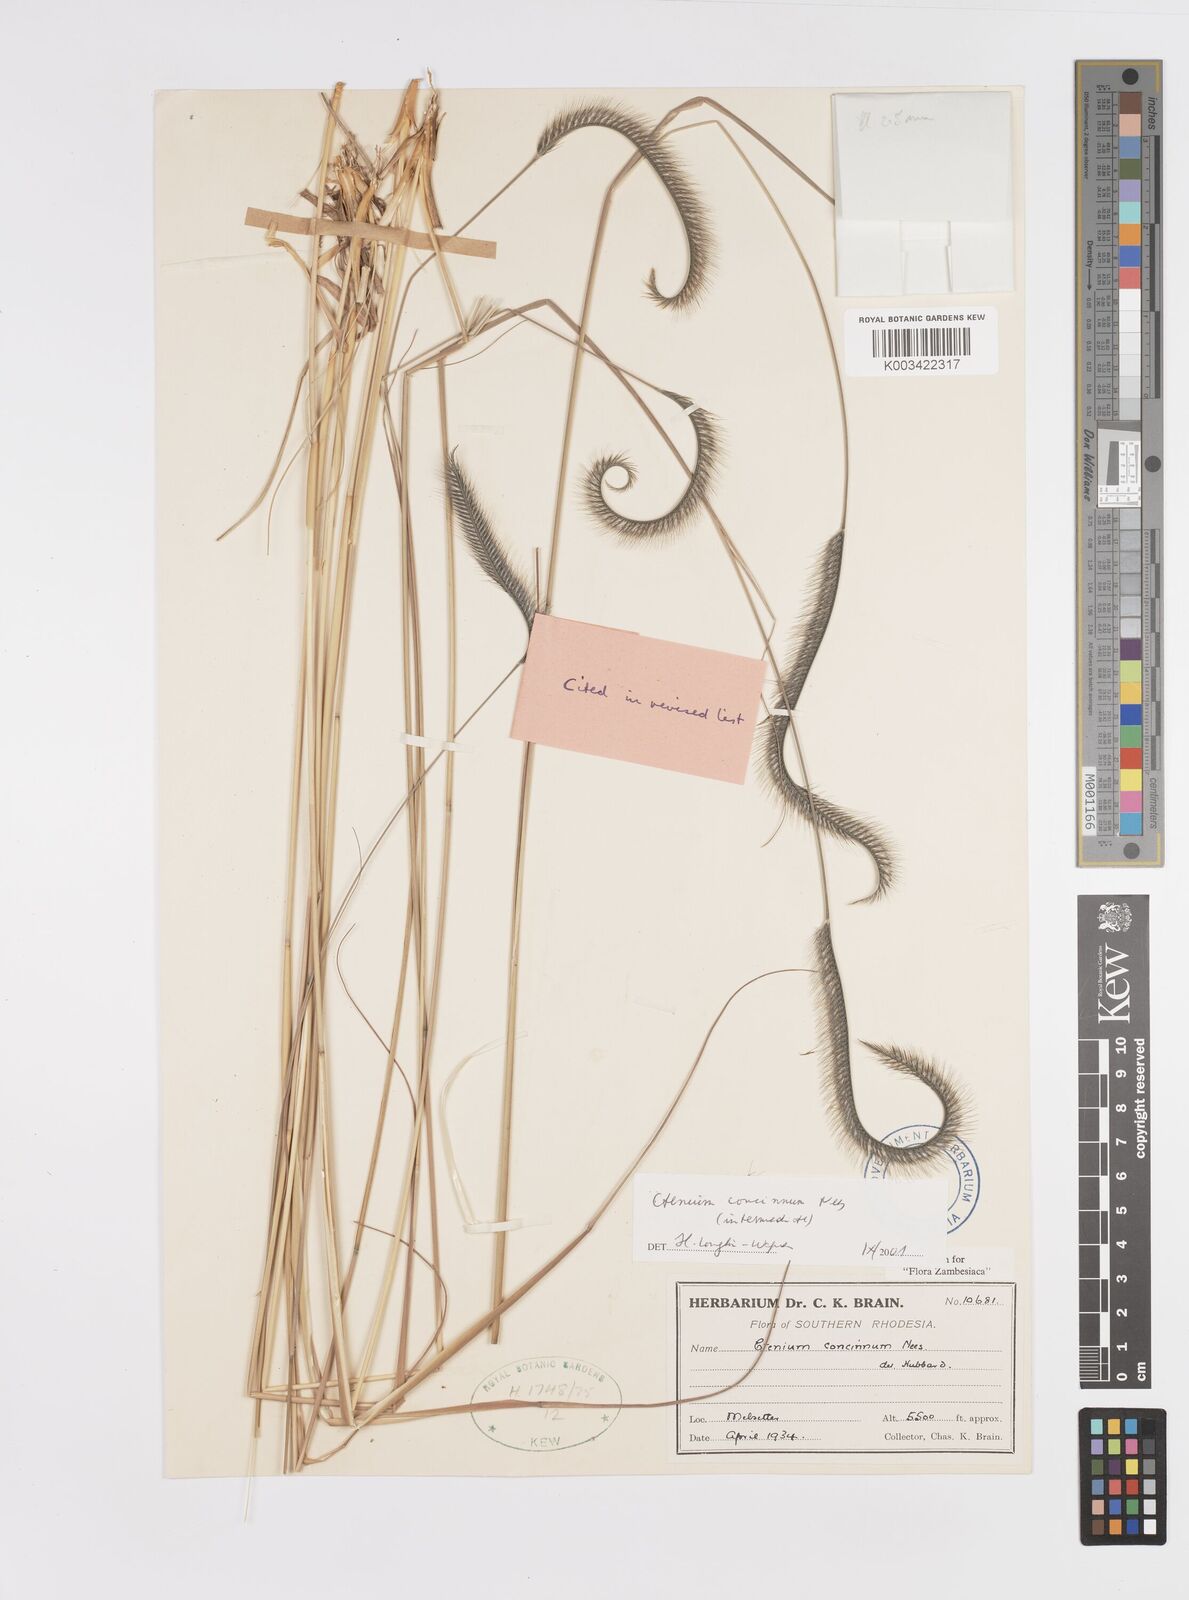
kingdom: Plantae
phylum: Tracheophyta
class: Liliopsida
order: Poales
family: Poaceae
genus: Ctenium
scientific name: Ctenium concinnum
